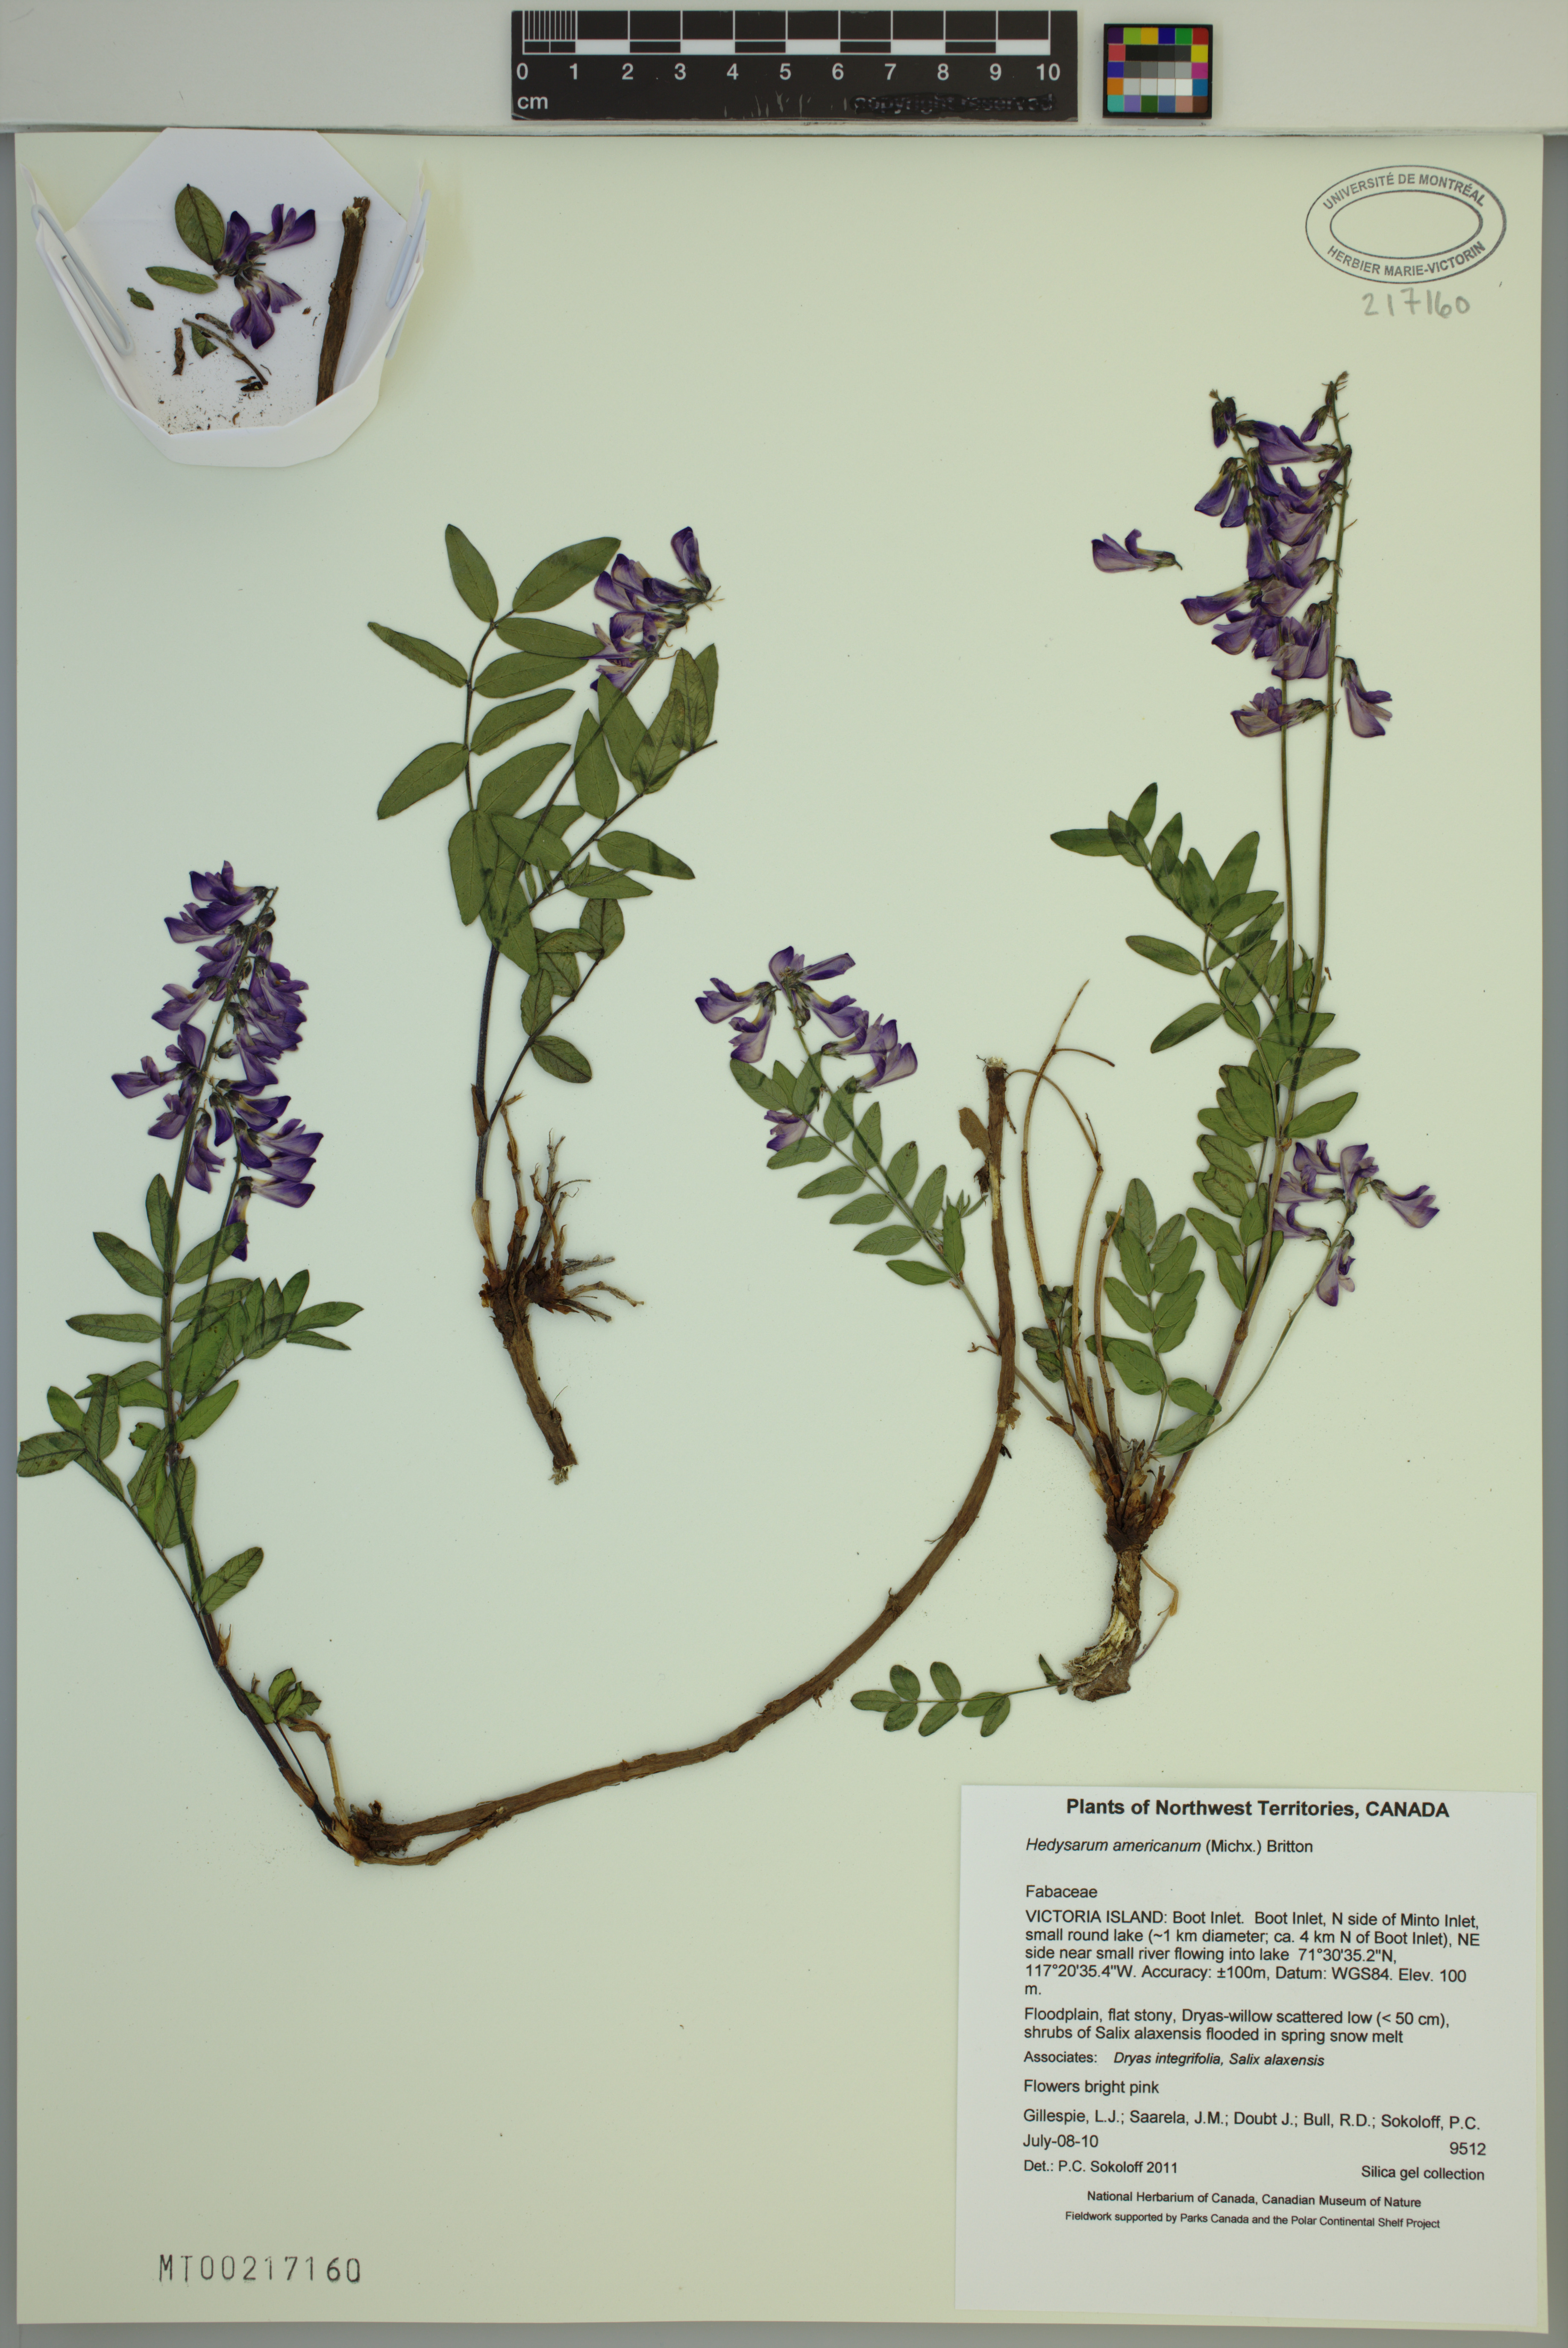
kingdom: Plantae
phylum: Tracheophyta
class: Magnoliopsida
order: Fabales
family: Fabaceae
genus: Hedysarum
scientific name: Hedysarum americanum
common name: Alpine hedysarum
